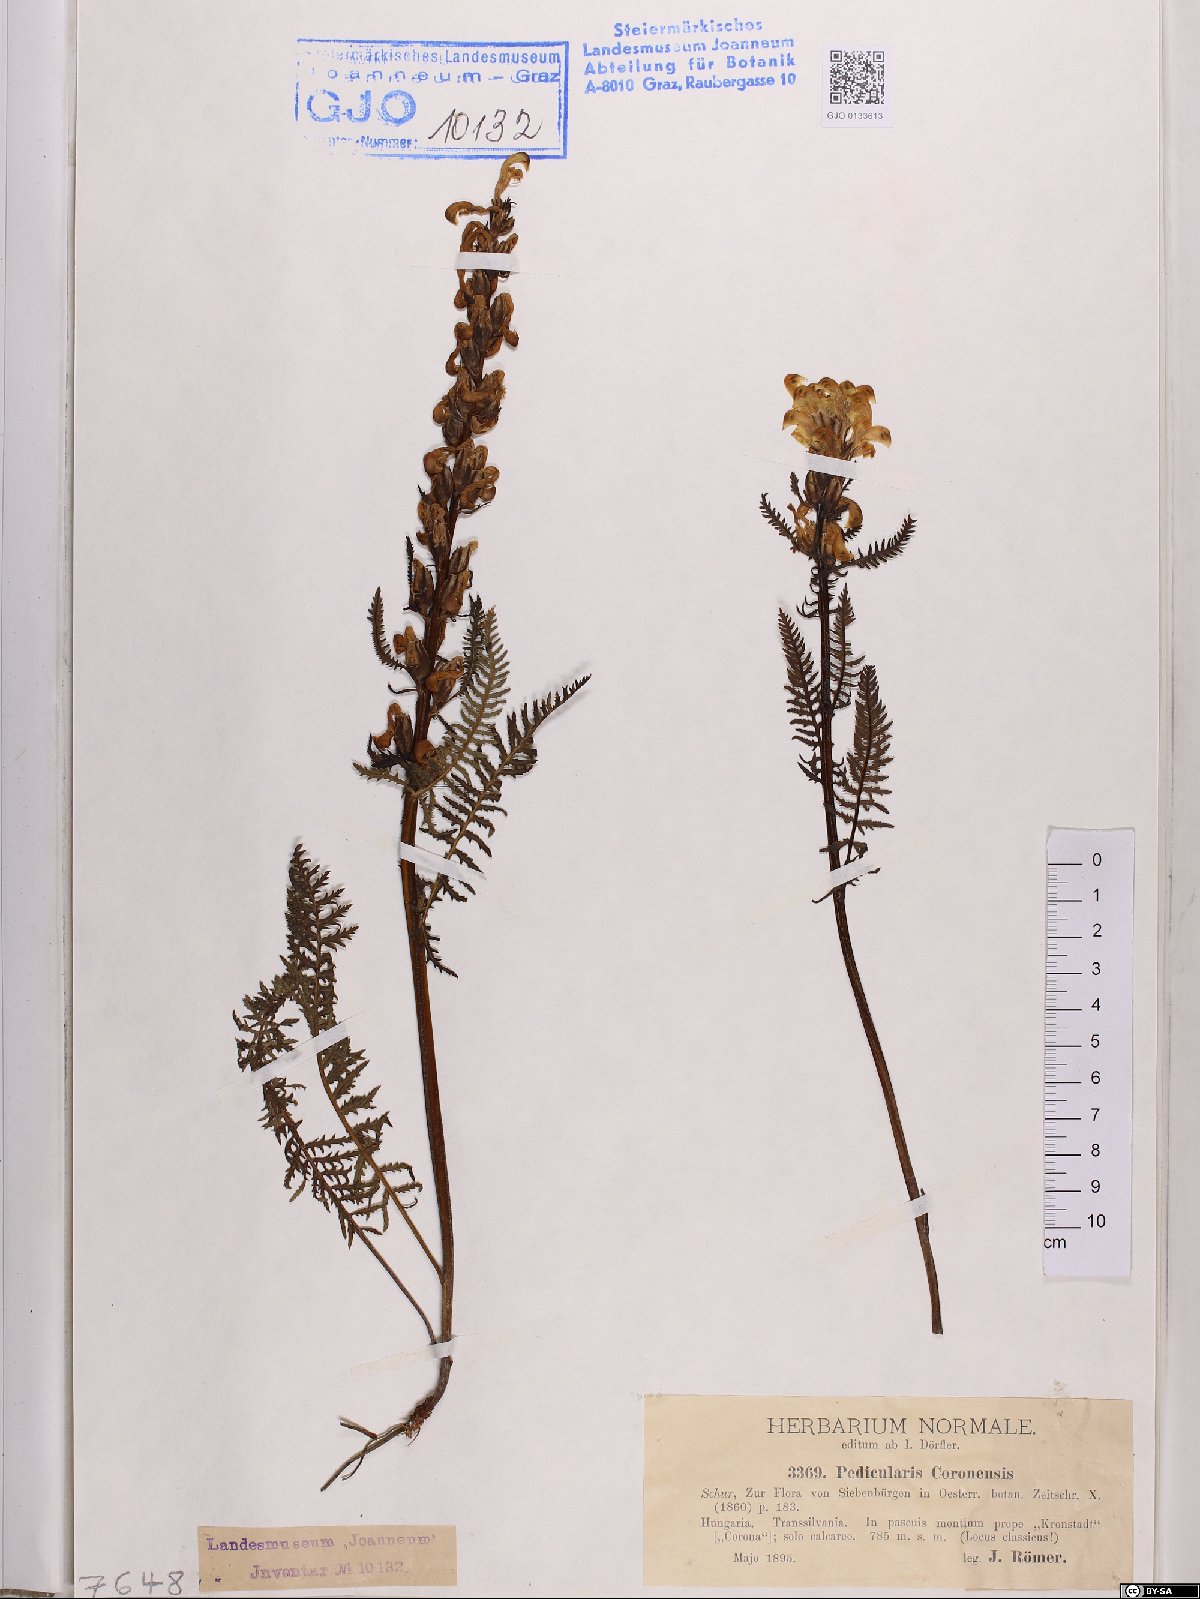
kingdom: Plantae
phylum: Tracheophyta
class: Magnoliopsida
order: Lamiales
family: Orobanchaceae
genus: Pedicularis
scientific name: Pedicularis comosa
